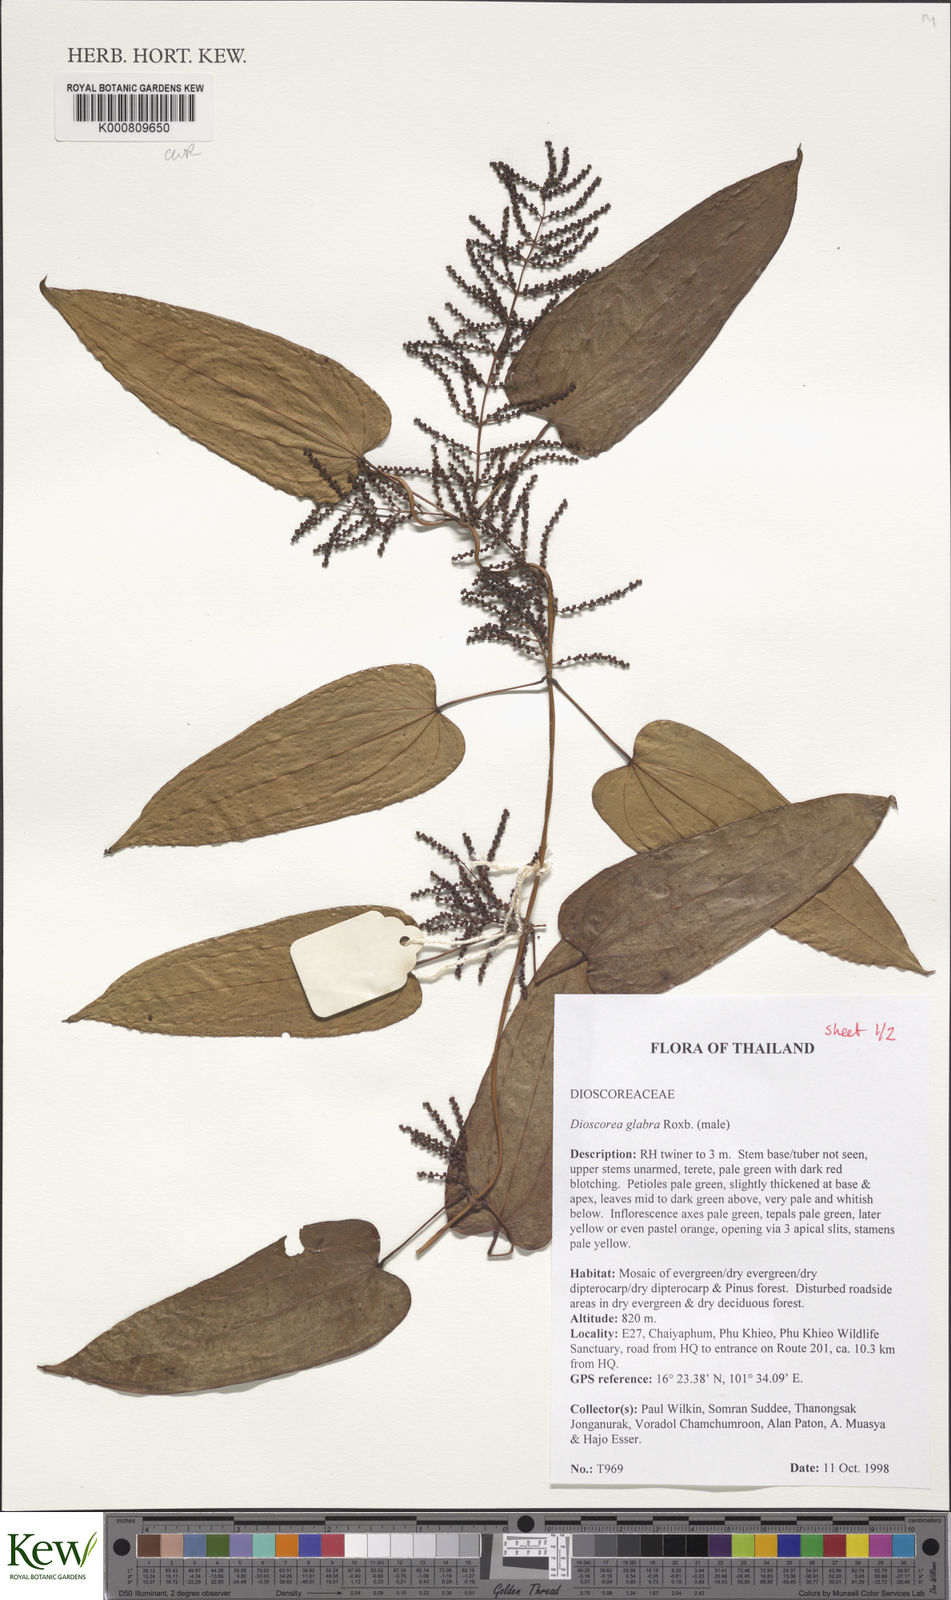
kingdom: Plantae
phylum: Tracheophyta
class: Liliopsida
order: Dioscoreales
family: Dioscoreaceae
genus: Dioscorea
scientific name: Dioscorea glabra
